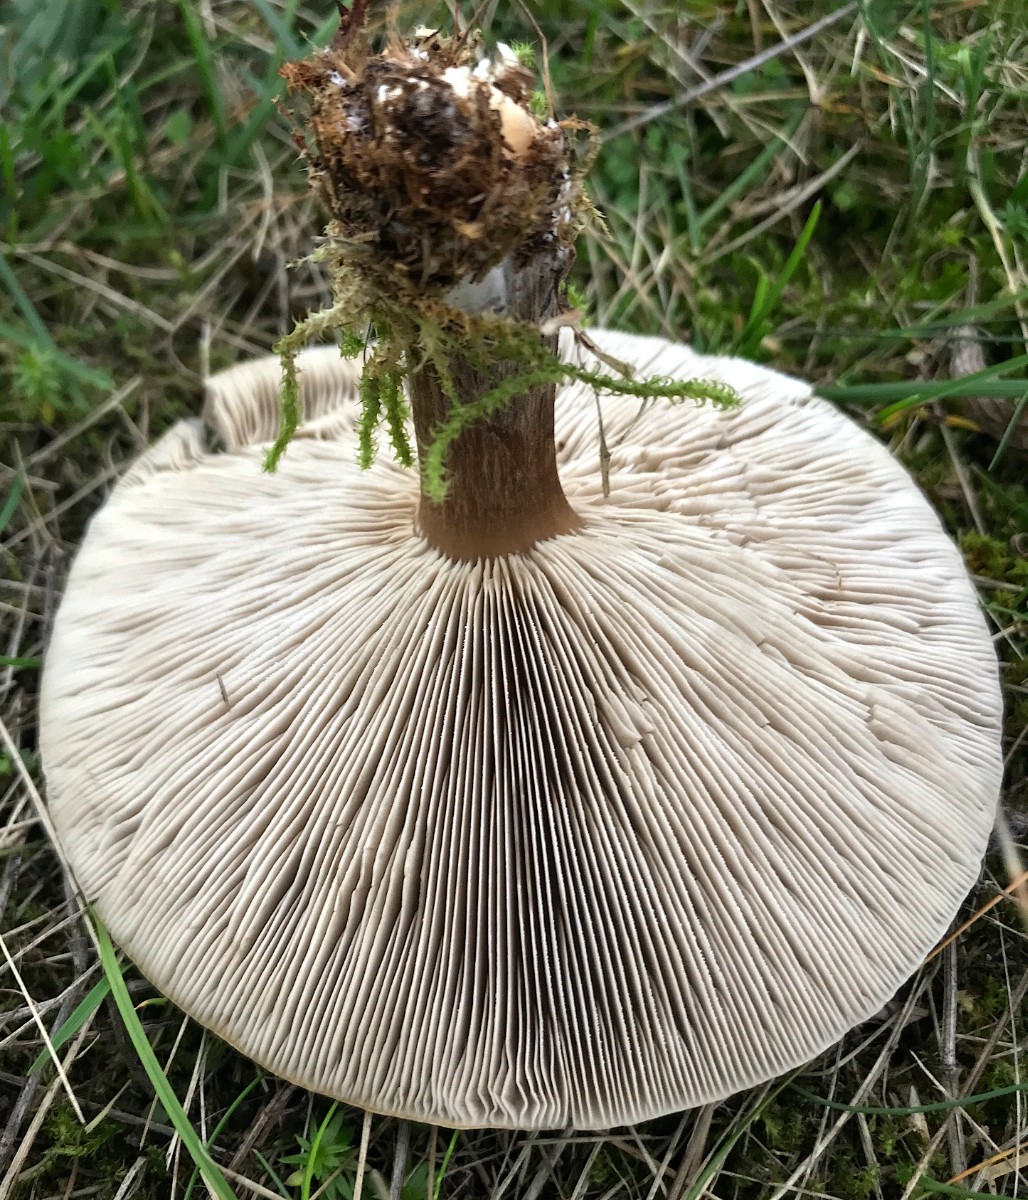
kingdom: Fungi
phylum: Basidiomycota
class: Agaricomycetes
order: Agaricales
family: Tricholomataceae
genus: Melanoleuca
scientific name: Melanoleuca
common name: munkehat
